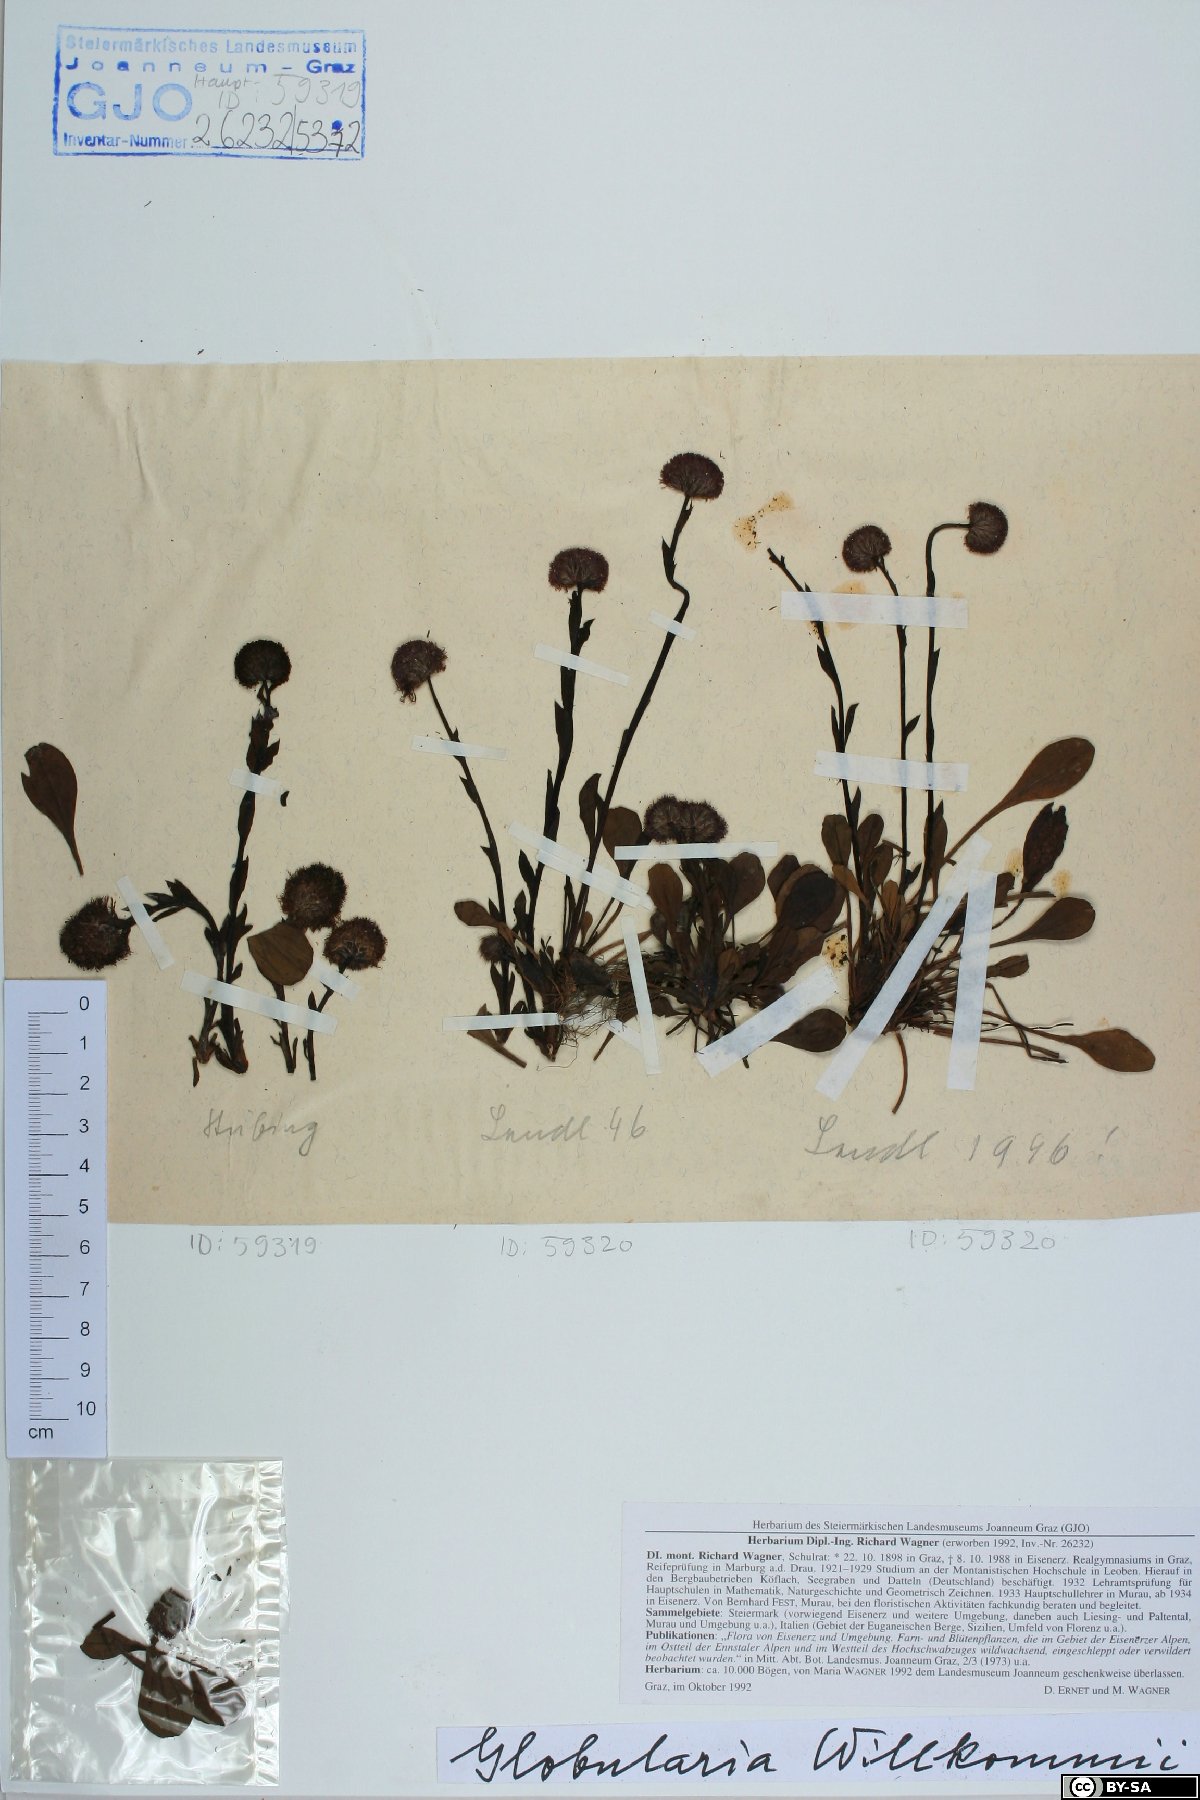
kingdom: Plantae
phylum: Tracheophyta
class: Magnoliopsida
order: Lamiales
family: Plantaginaceae
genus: Globularia
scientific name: Globularia bisnagarica
